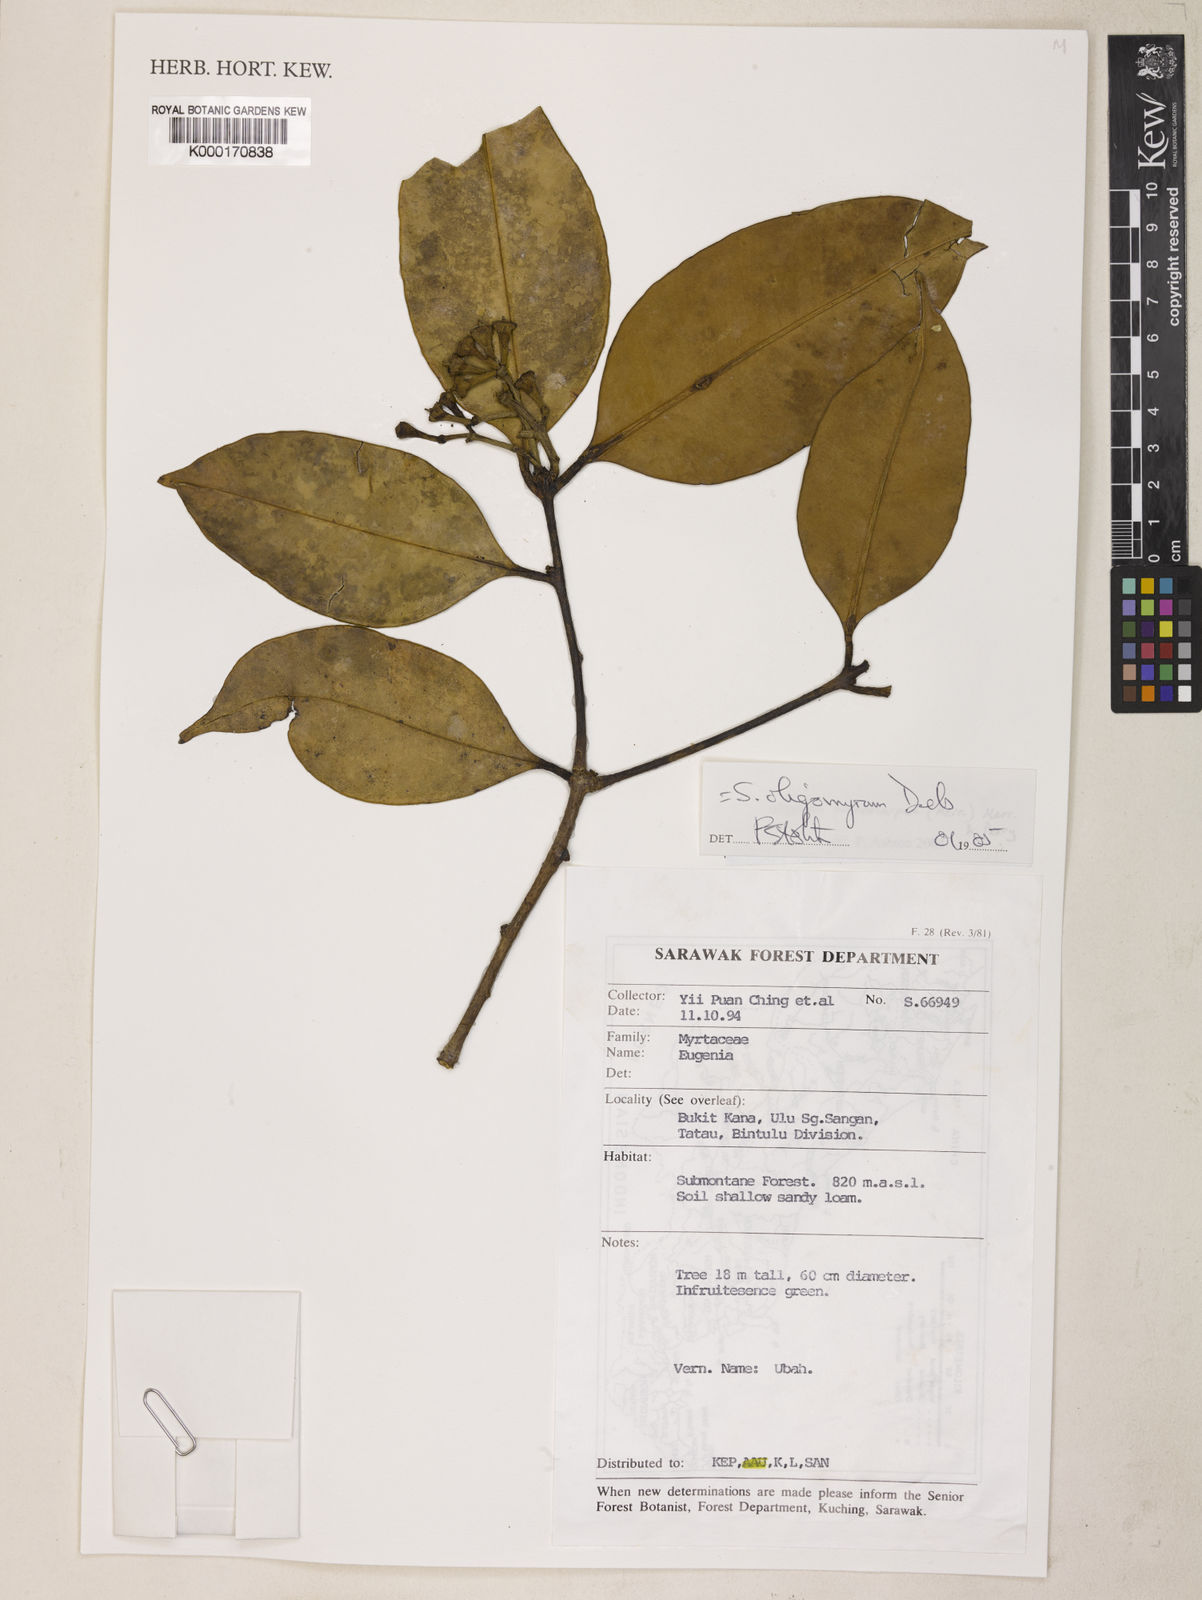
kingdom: Plantae
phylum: Tracheophyta
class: Magnoliopsida
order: Myrtales
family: Myrtaceae
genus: Syzygium
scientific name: Syzygium oligomyrum
